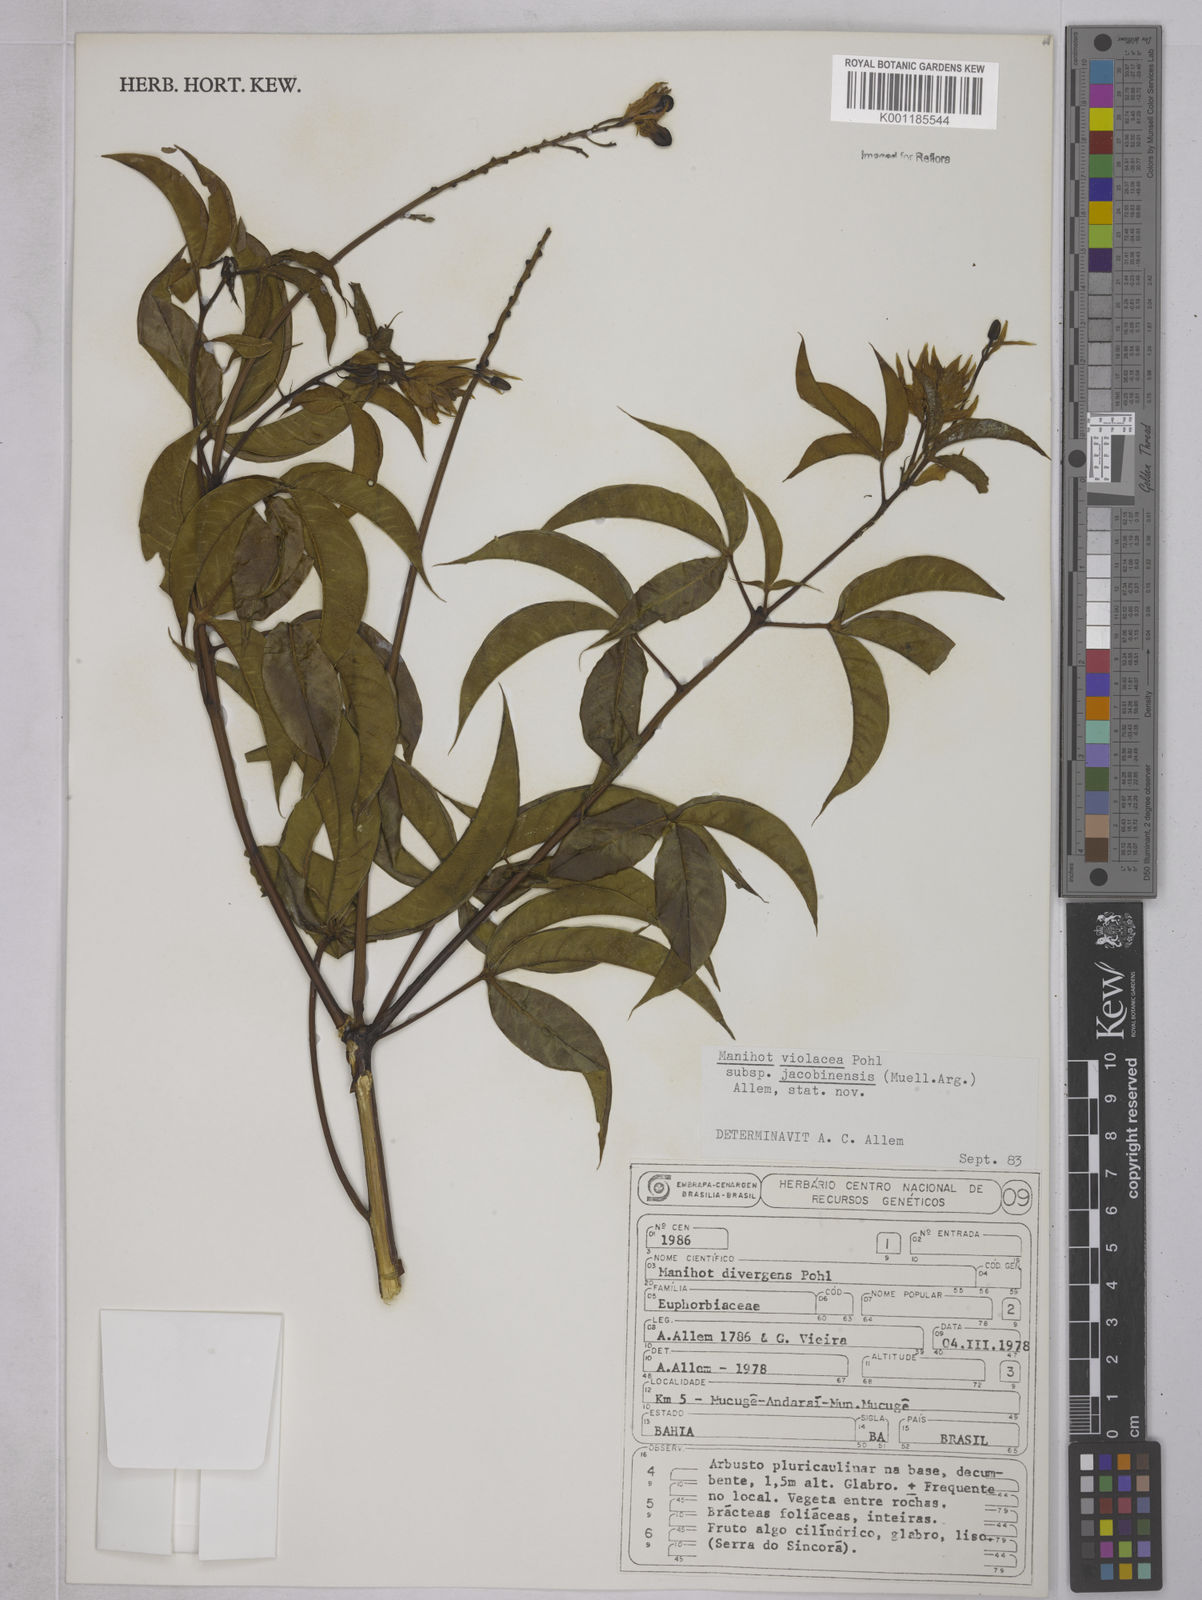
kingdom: Plantae
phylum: Tracheophyta
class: Magnoliopsida
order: Malpighiales
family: Euphorbiaceae
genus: Manihot
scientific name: Manihot
